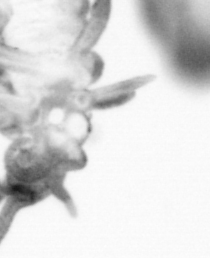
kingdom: Chromista
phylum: Ochrophyta
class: Bacillariophyceae
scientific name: Bacillariophyceae
